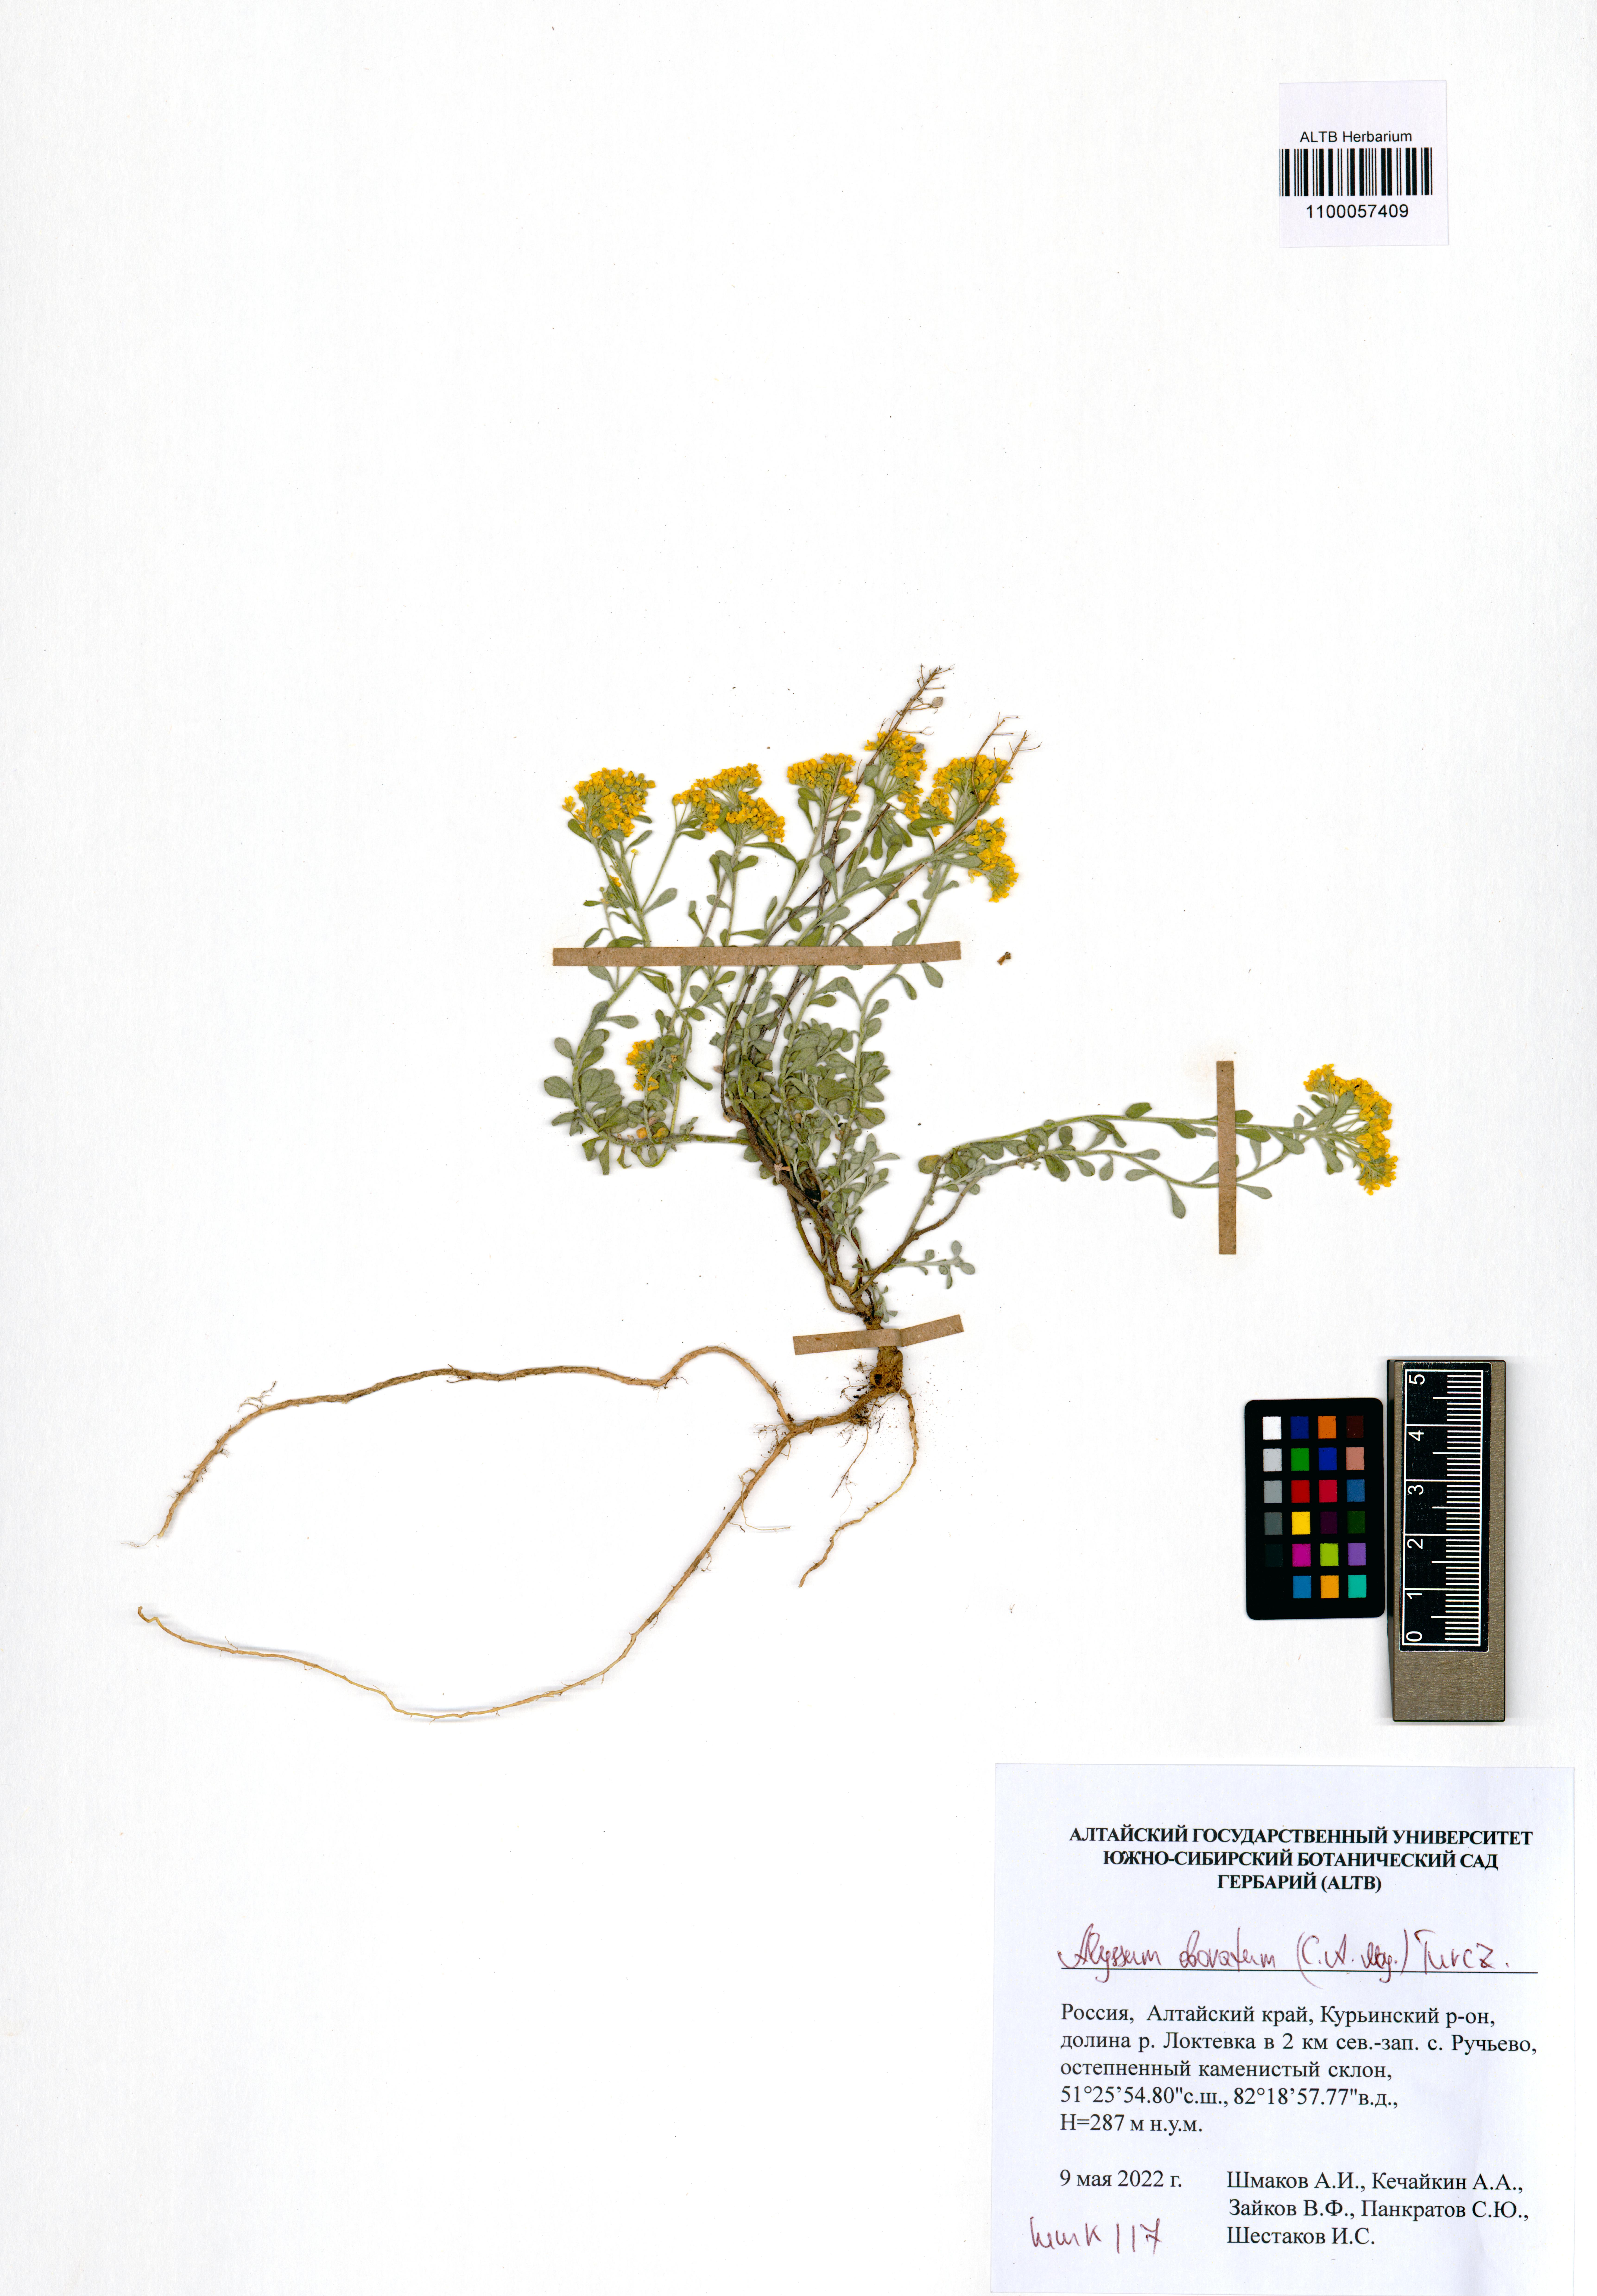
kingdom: Plantae
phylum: Tracheophyta
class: Magnoliopsida
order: Brassicales
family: Brassicaceae
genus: Odontarrhena
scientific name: Odontarrhena obovata
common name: American alyssum
